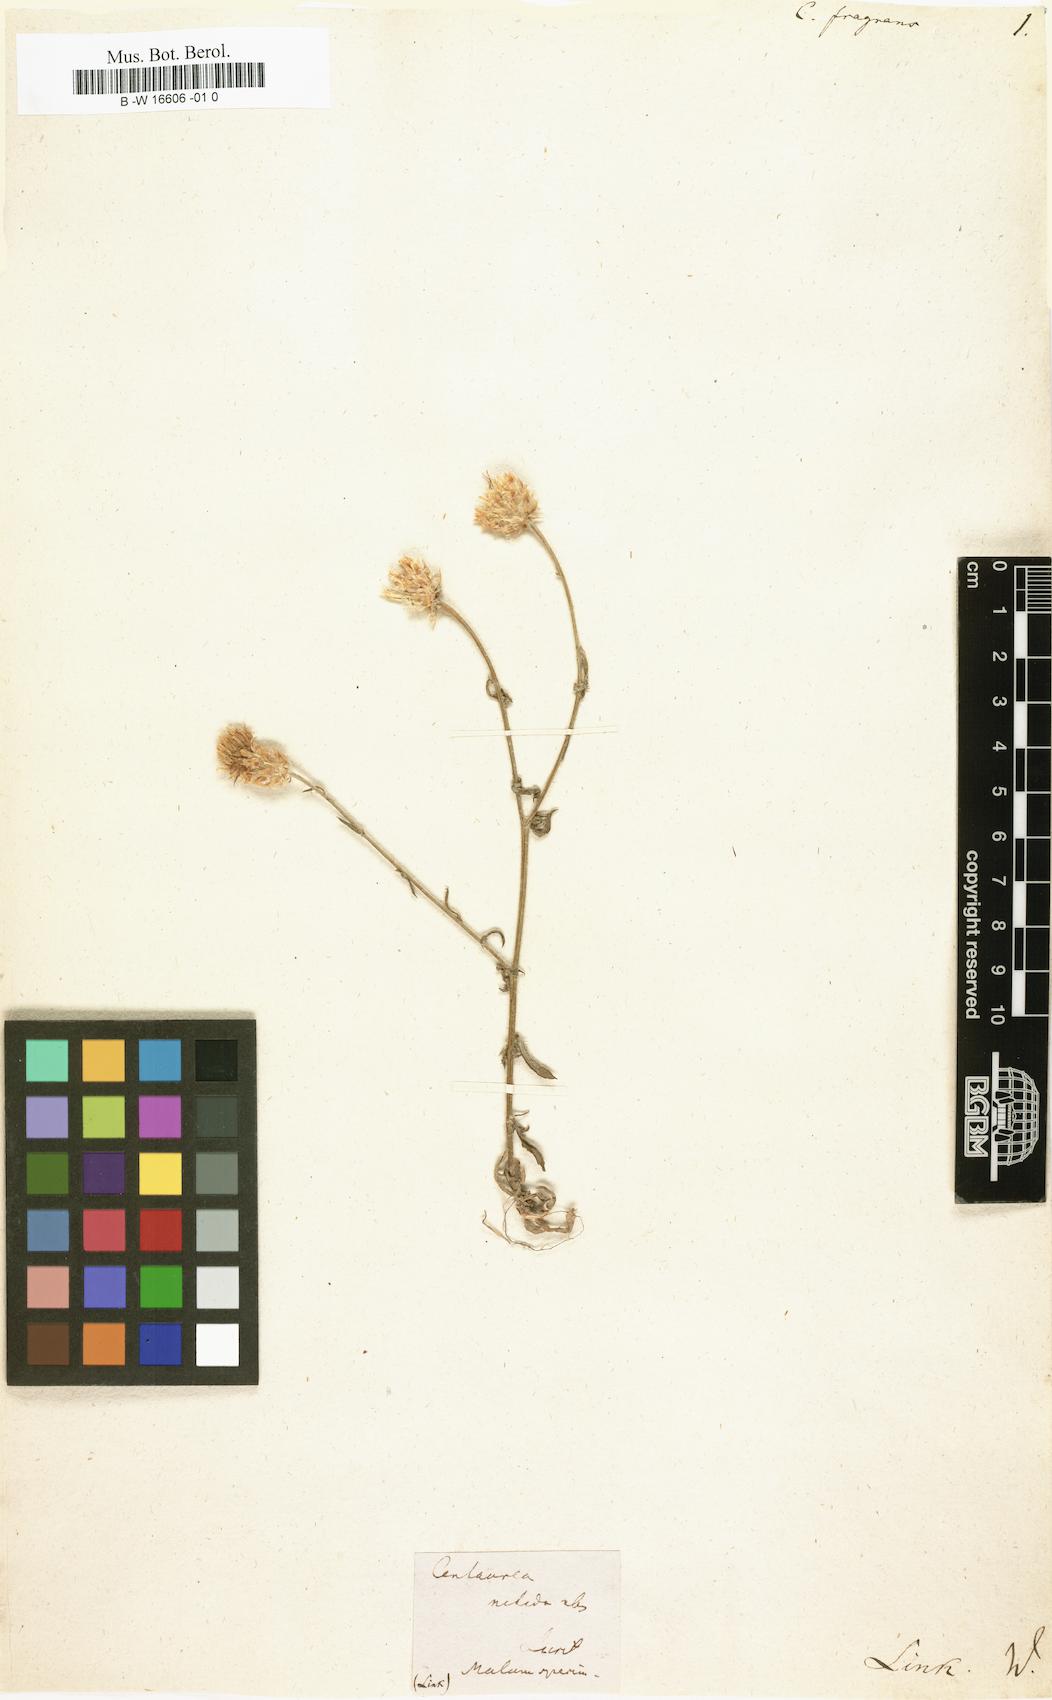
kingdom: Plantae
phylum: Tracheophyta
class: Magnoliopsida
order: Asterales
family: Asteraceae
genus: Centaurea
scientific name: Centaurea
